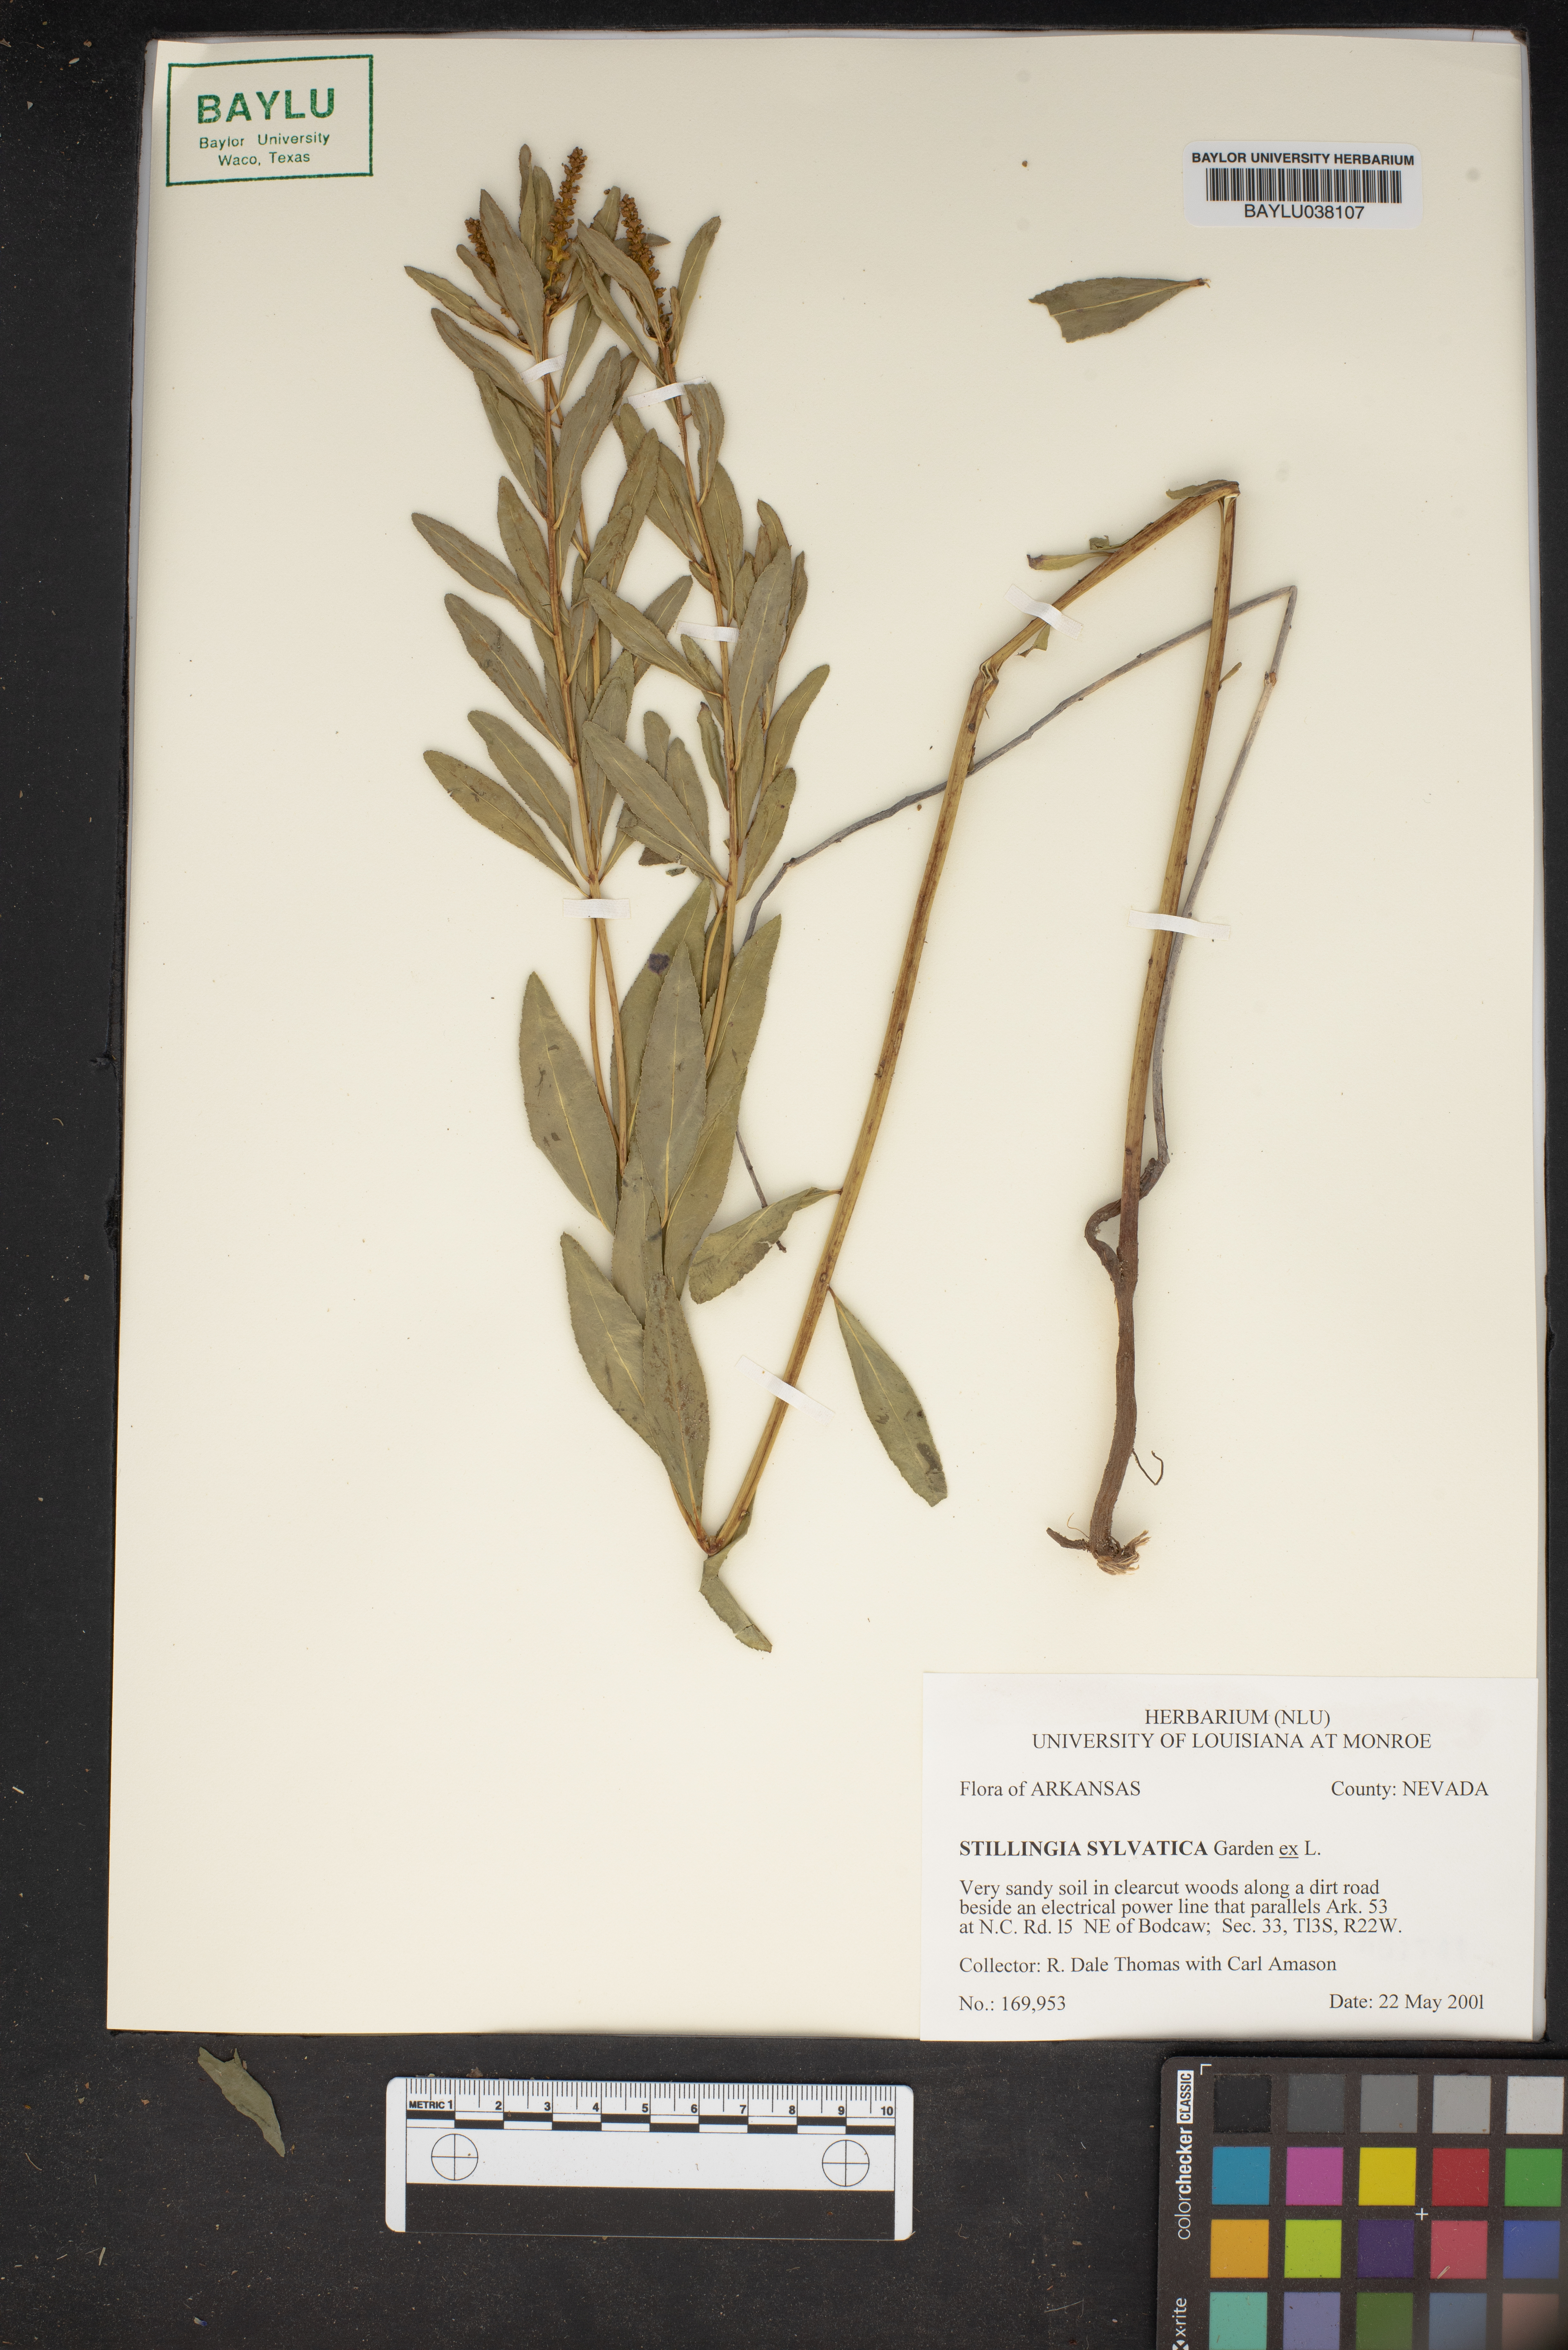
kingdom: Plantae
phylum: Tracheophyta
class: Magnoliopsida
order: Malpighiales
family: Euphorbiaceae
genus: Stillingia
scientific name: Stillingia sylvatica
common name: Queen's-delight
